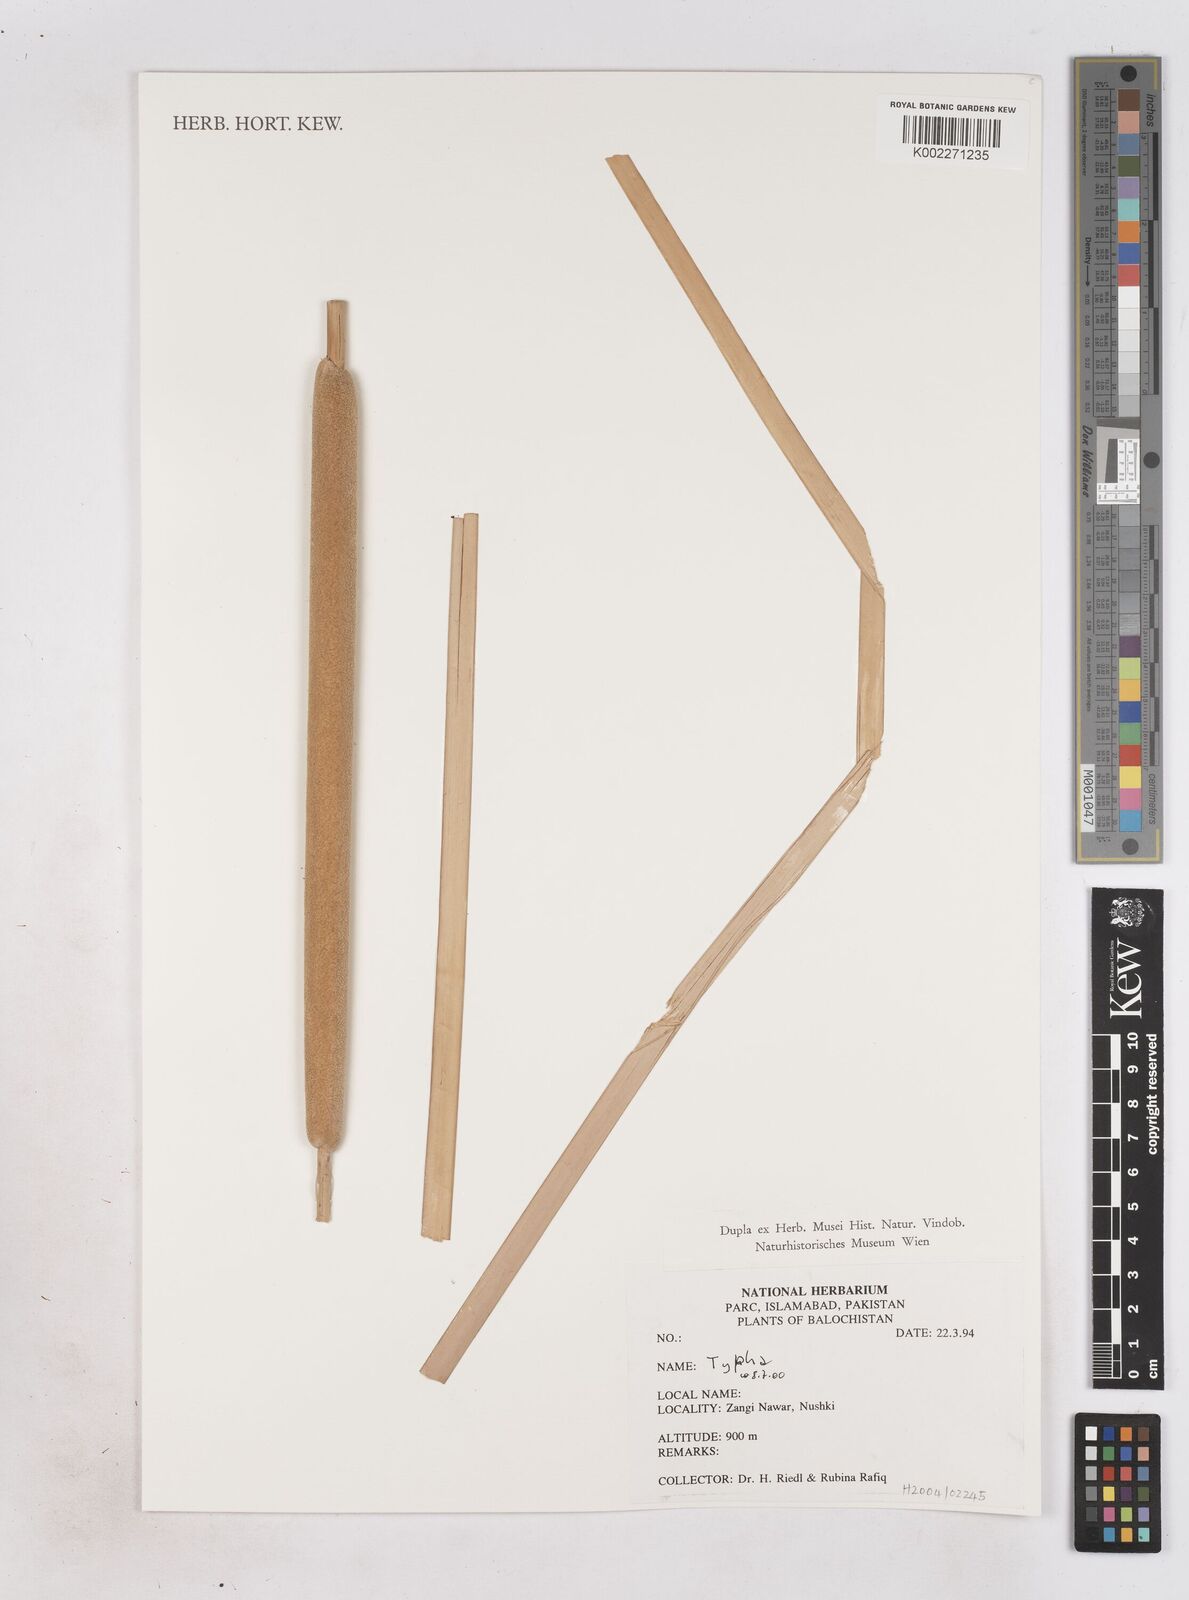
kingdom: Plantae
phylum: Tracheophyta
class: Liliopsida
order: Poales
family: Typhaceae
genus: Typha
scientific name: Typha
